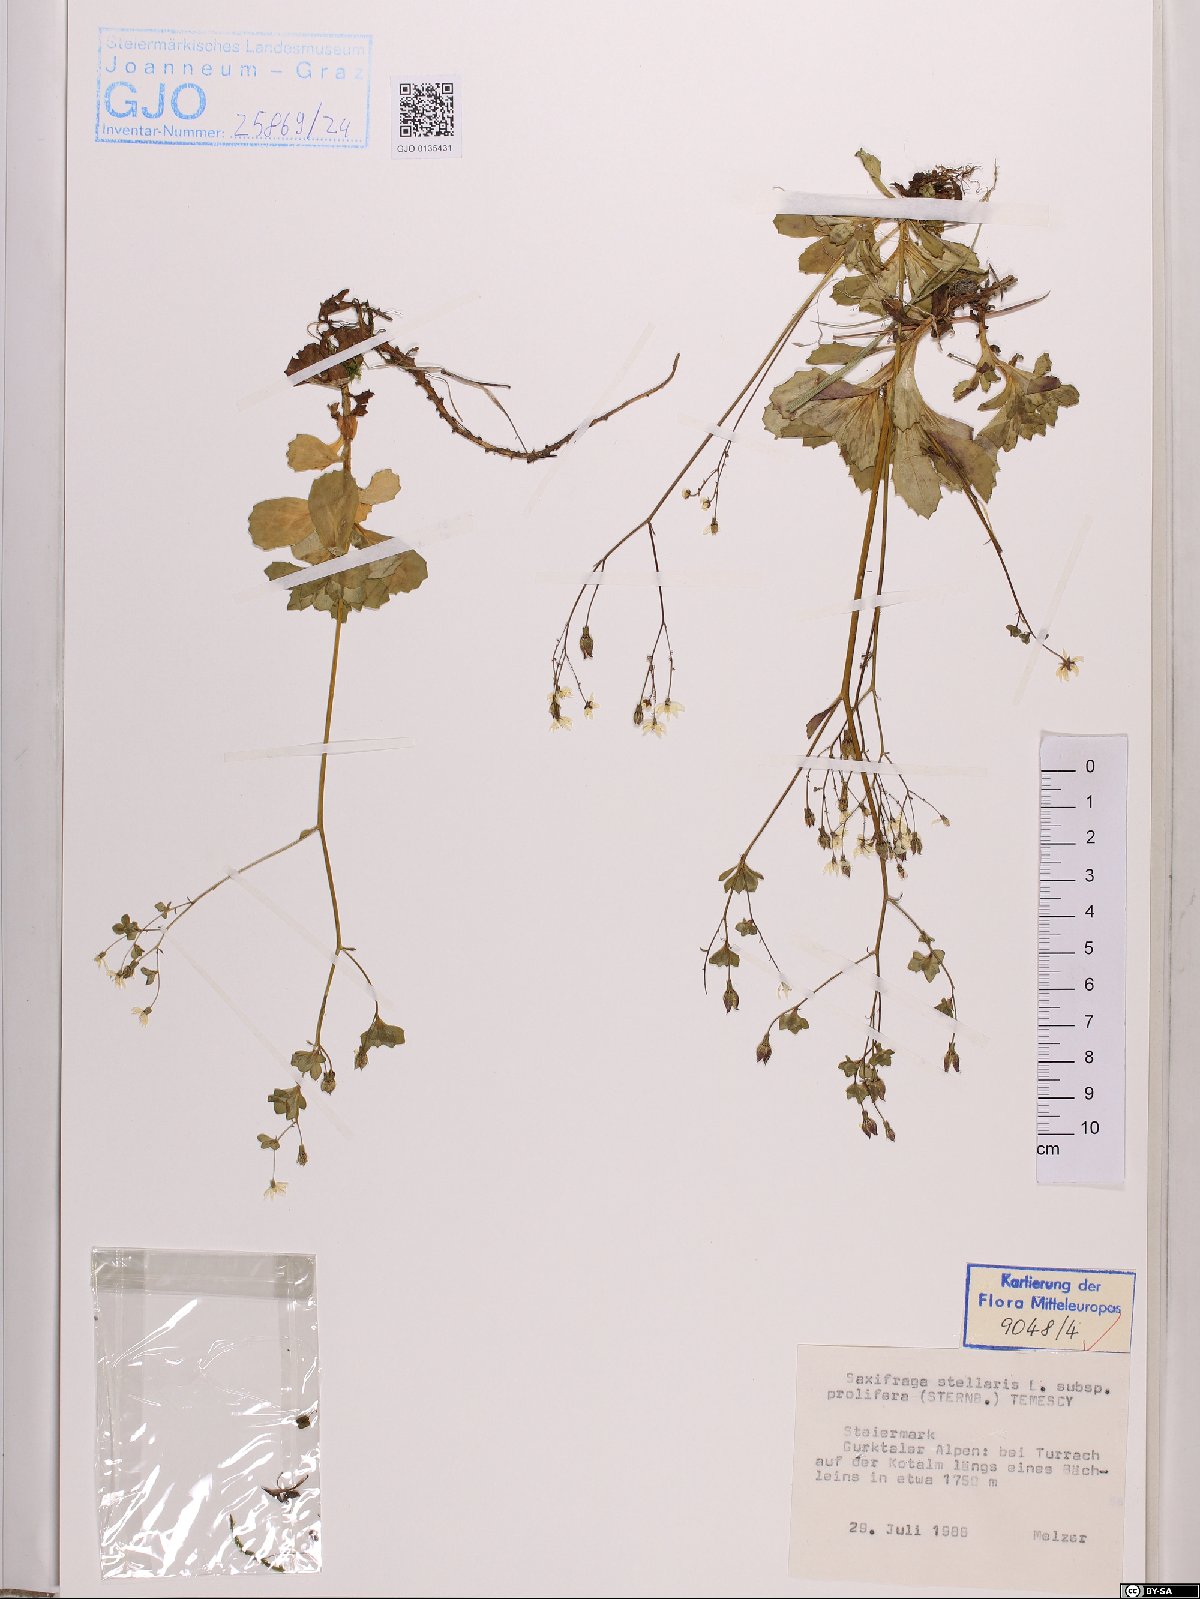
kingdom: Plantae
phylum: Tracheophyta
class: Magnoliopsida
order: Saxifragales
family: Saxifragaceae
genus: Micranthes
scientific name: Micranthes stellaris
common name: Starry saxifrage
